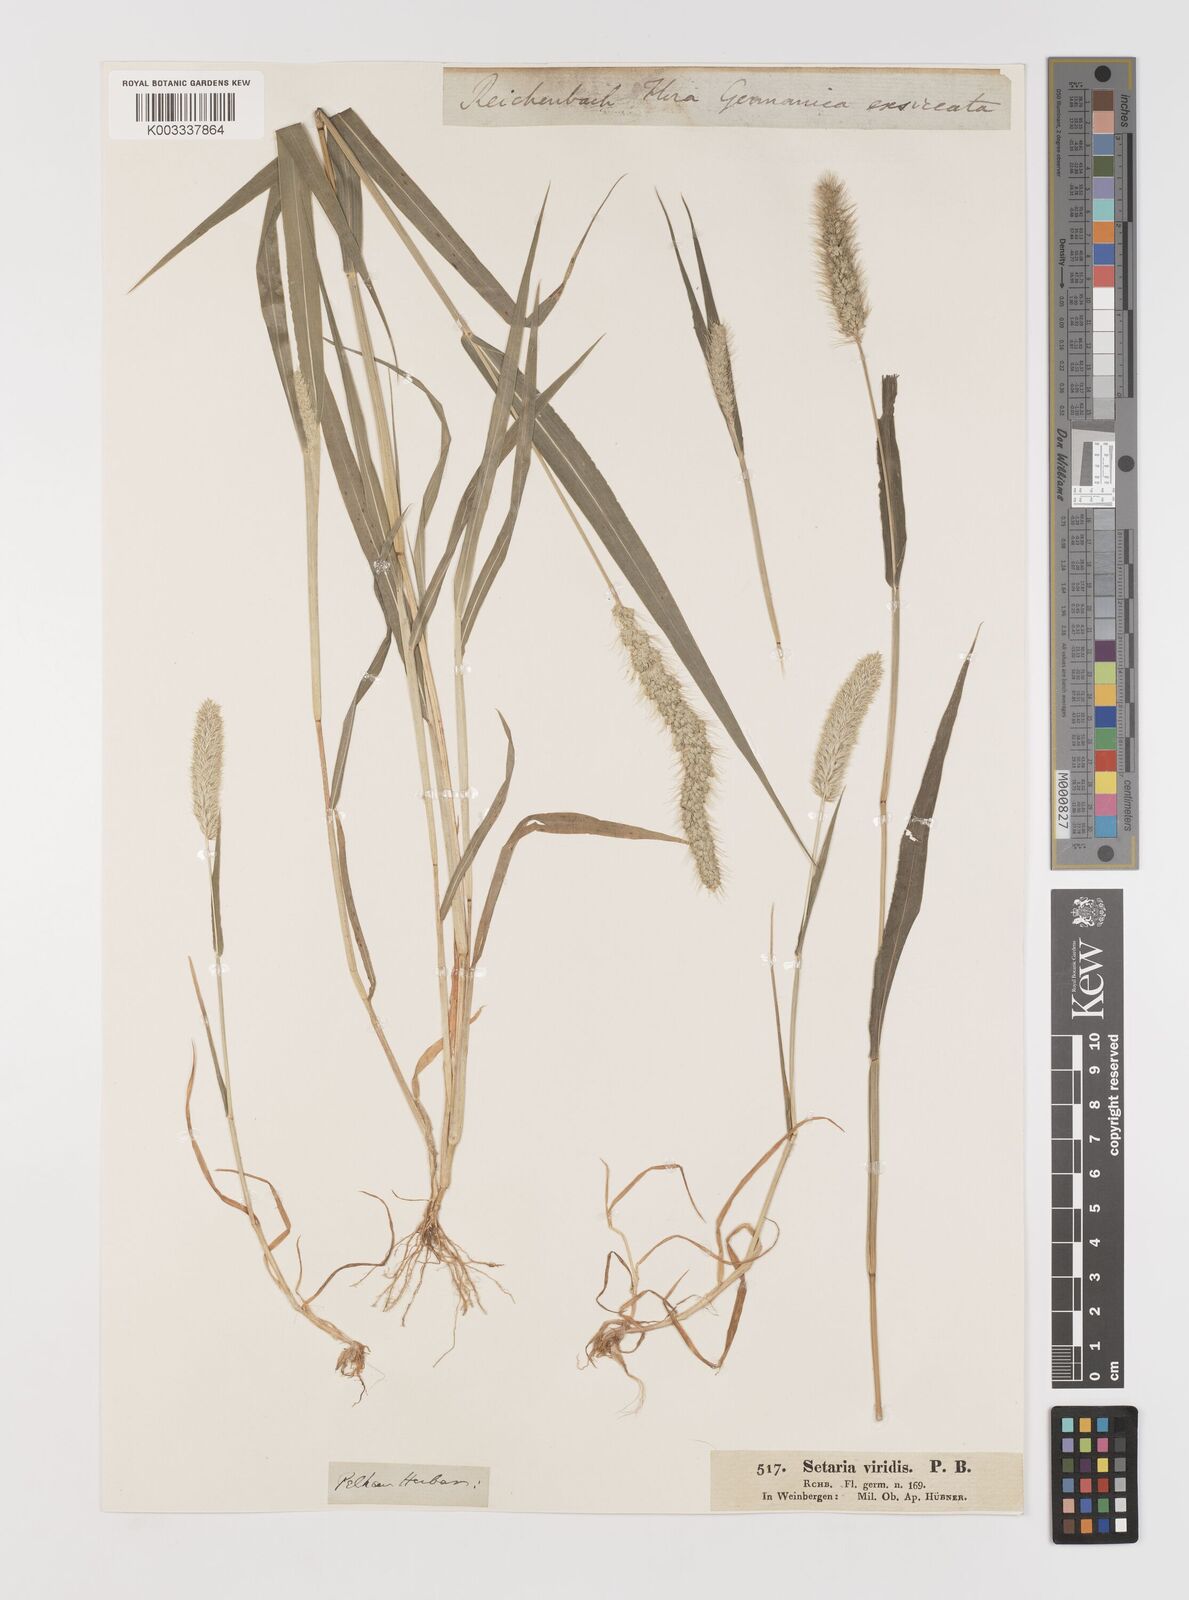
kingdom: Plantae
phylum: Tracheophyta
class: Liliopsida
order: Poales
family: Poaceae
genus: Setaria
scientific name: Setaria viridis
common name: Green bristlegrass
